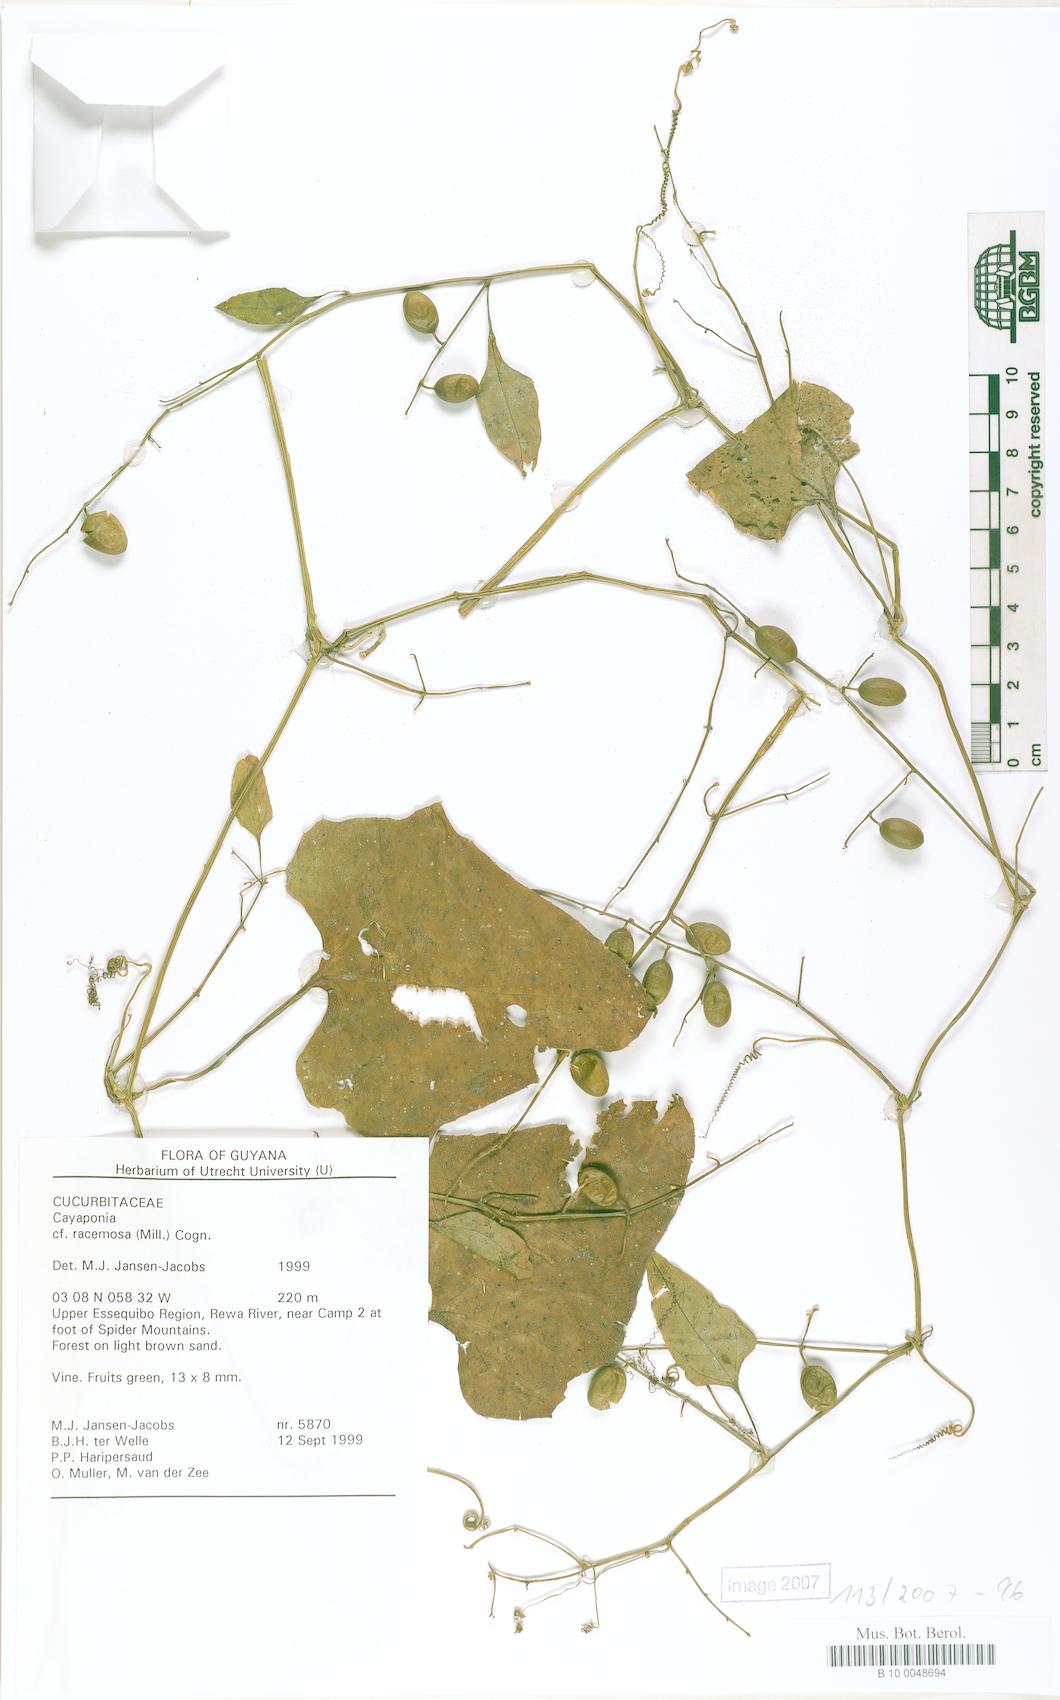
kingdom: Plantae
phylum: Tracheophyta
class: Magnoliopsida
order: Cucurbitales
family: Cucurbitaceae
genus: Cayaponia
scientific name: Cayaponia racemosa
